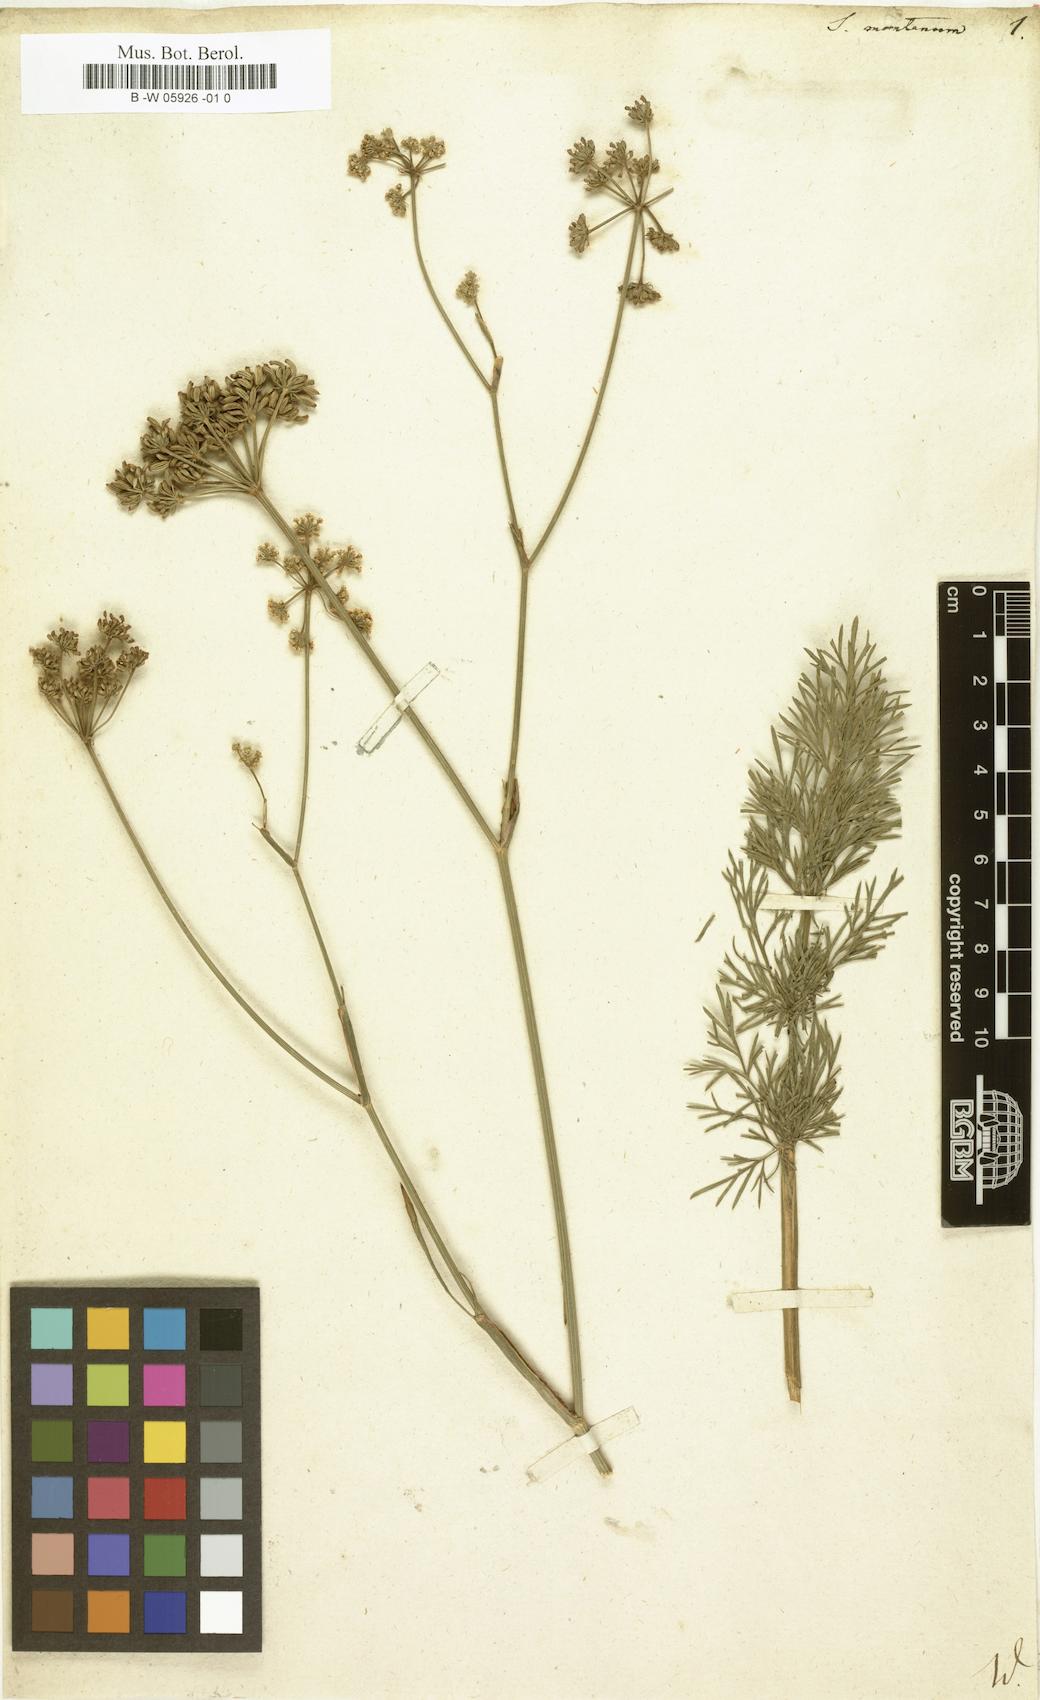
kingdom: Plantae
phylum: Tracheophyta
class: Magnoliopsida
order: Apiales
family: Apiaceae
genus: Seseli
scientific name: Seseli montanum
